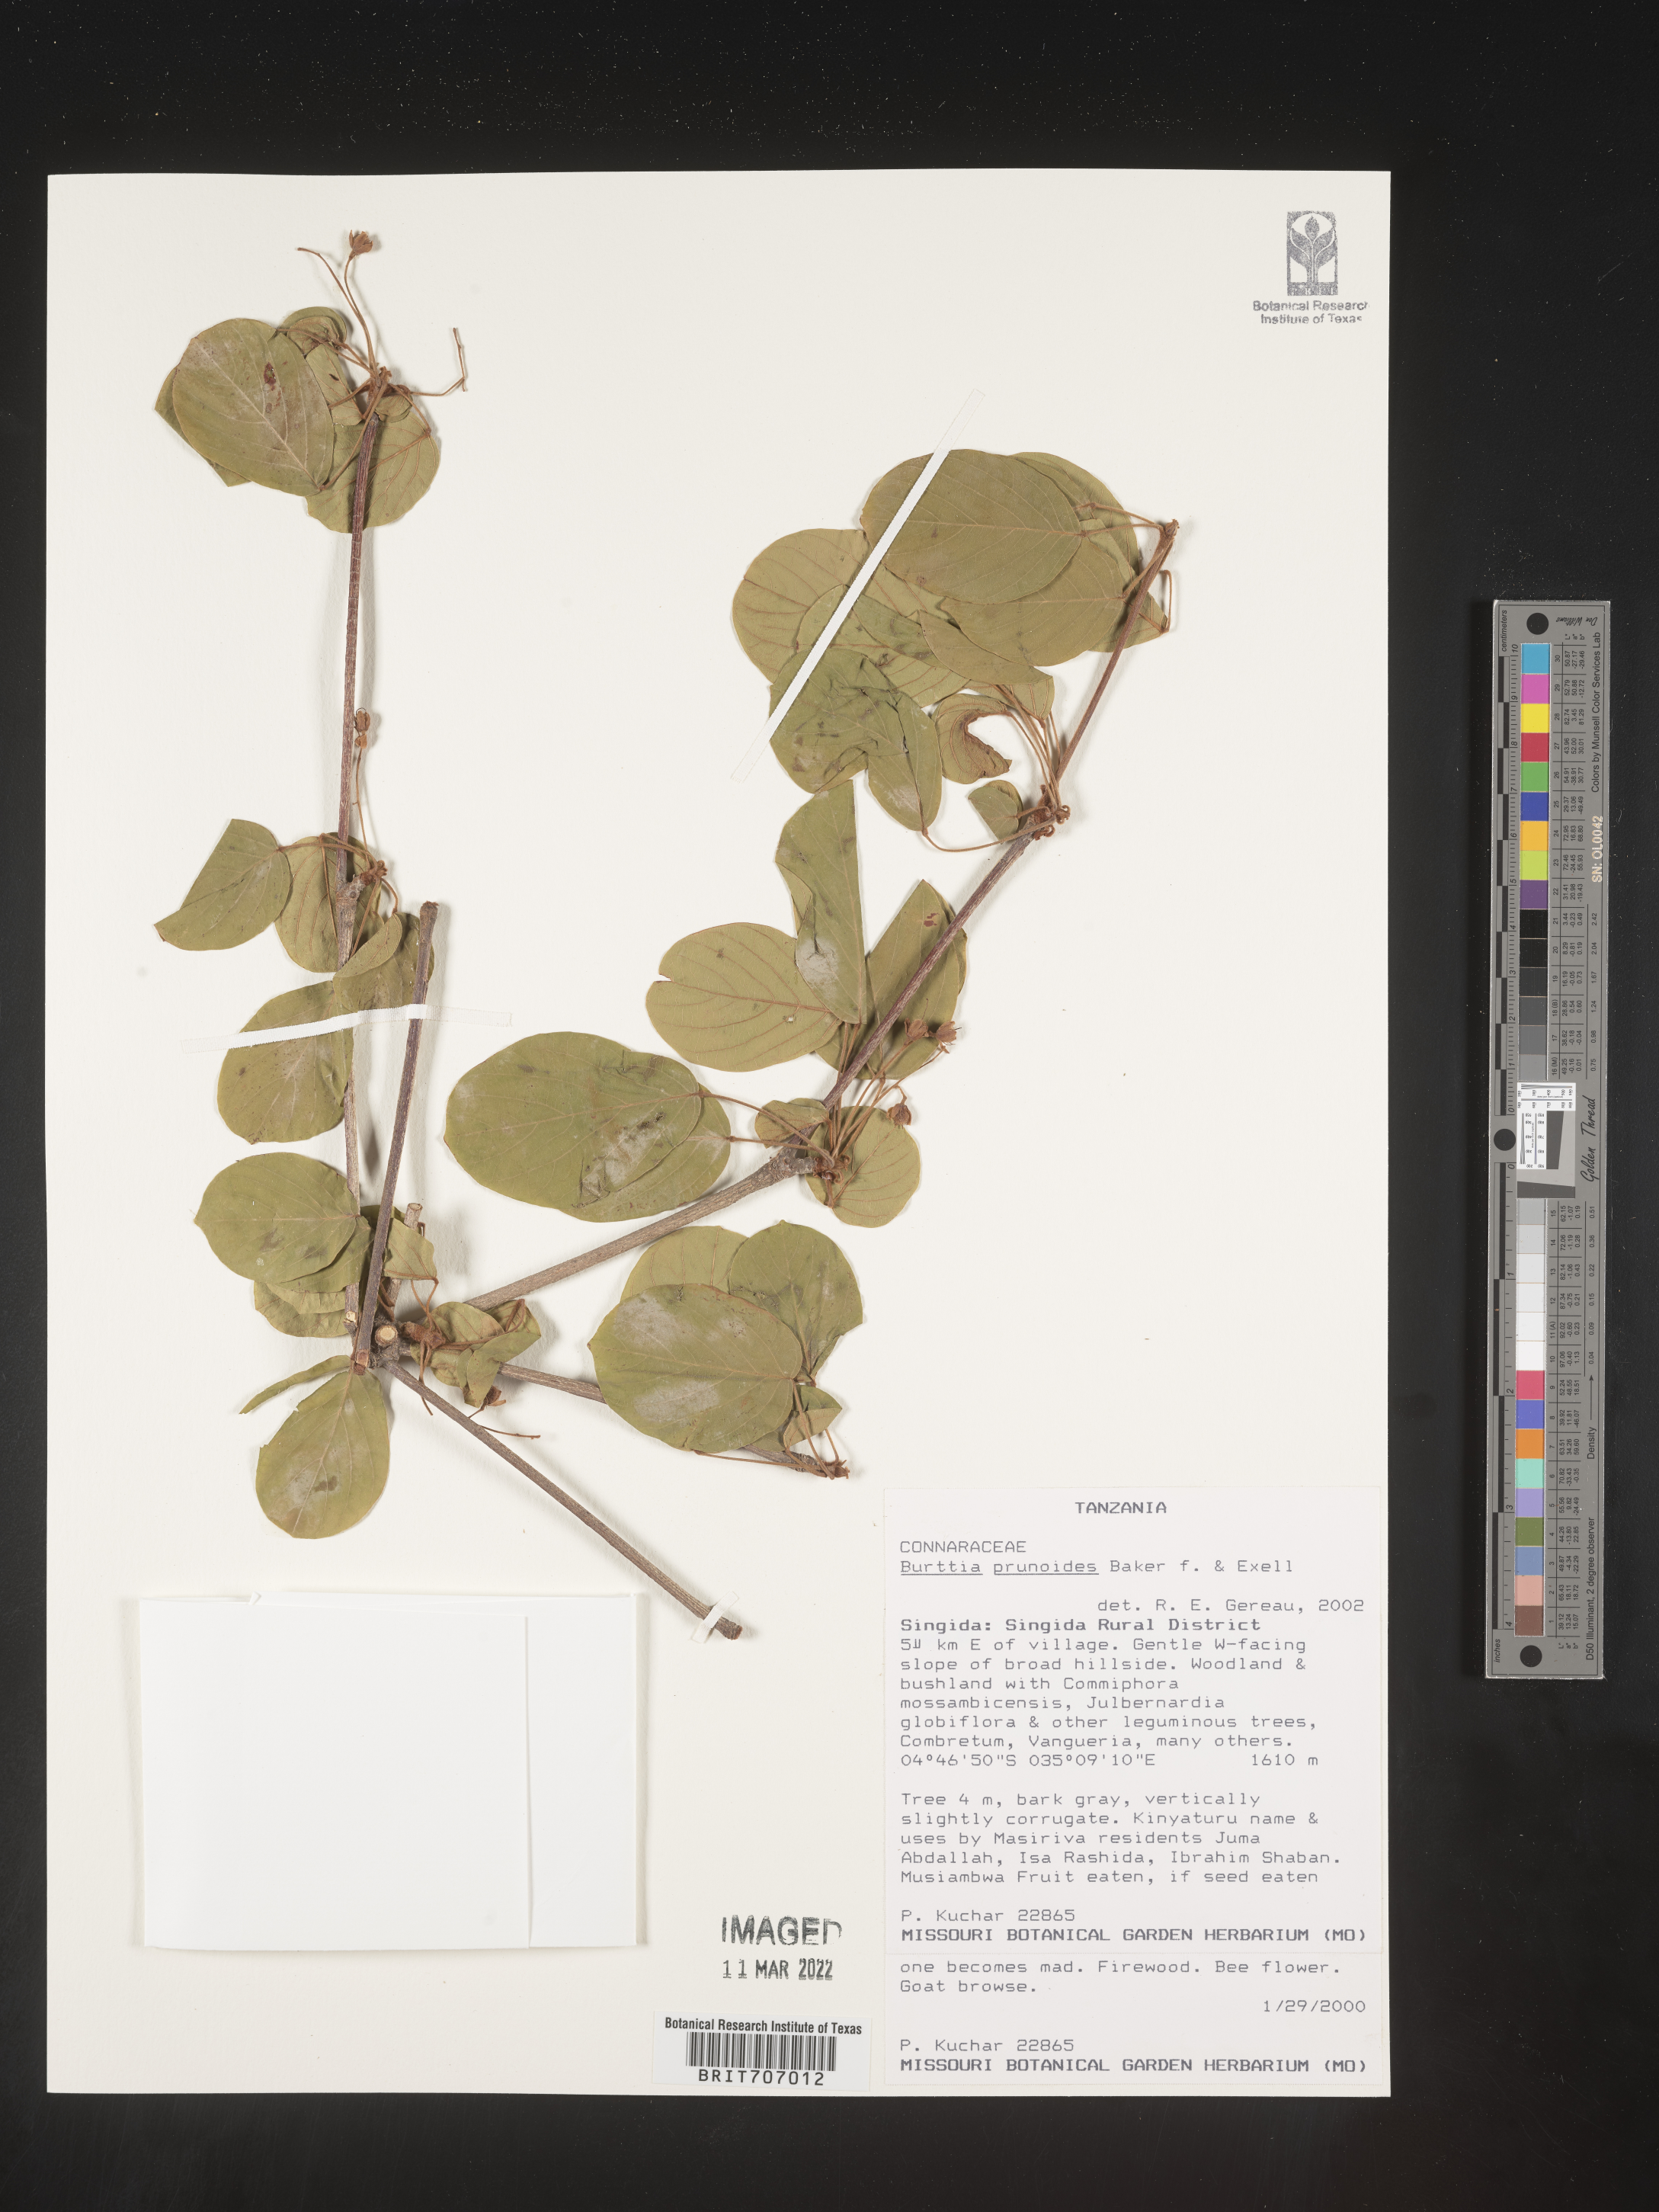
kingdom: Plantae
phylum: Tracheophyta
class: Magnoliopsida
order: Oxalidales
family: Connaraceae
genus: Burttia
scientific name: Burttia
